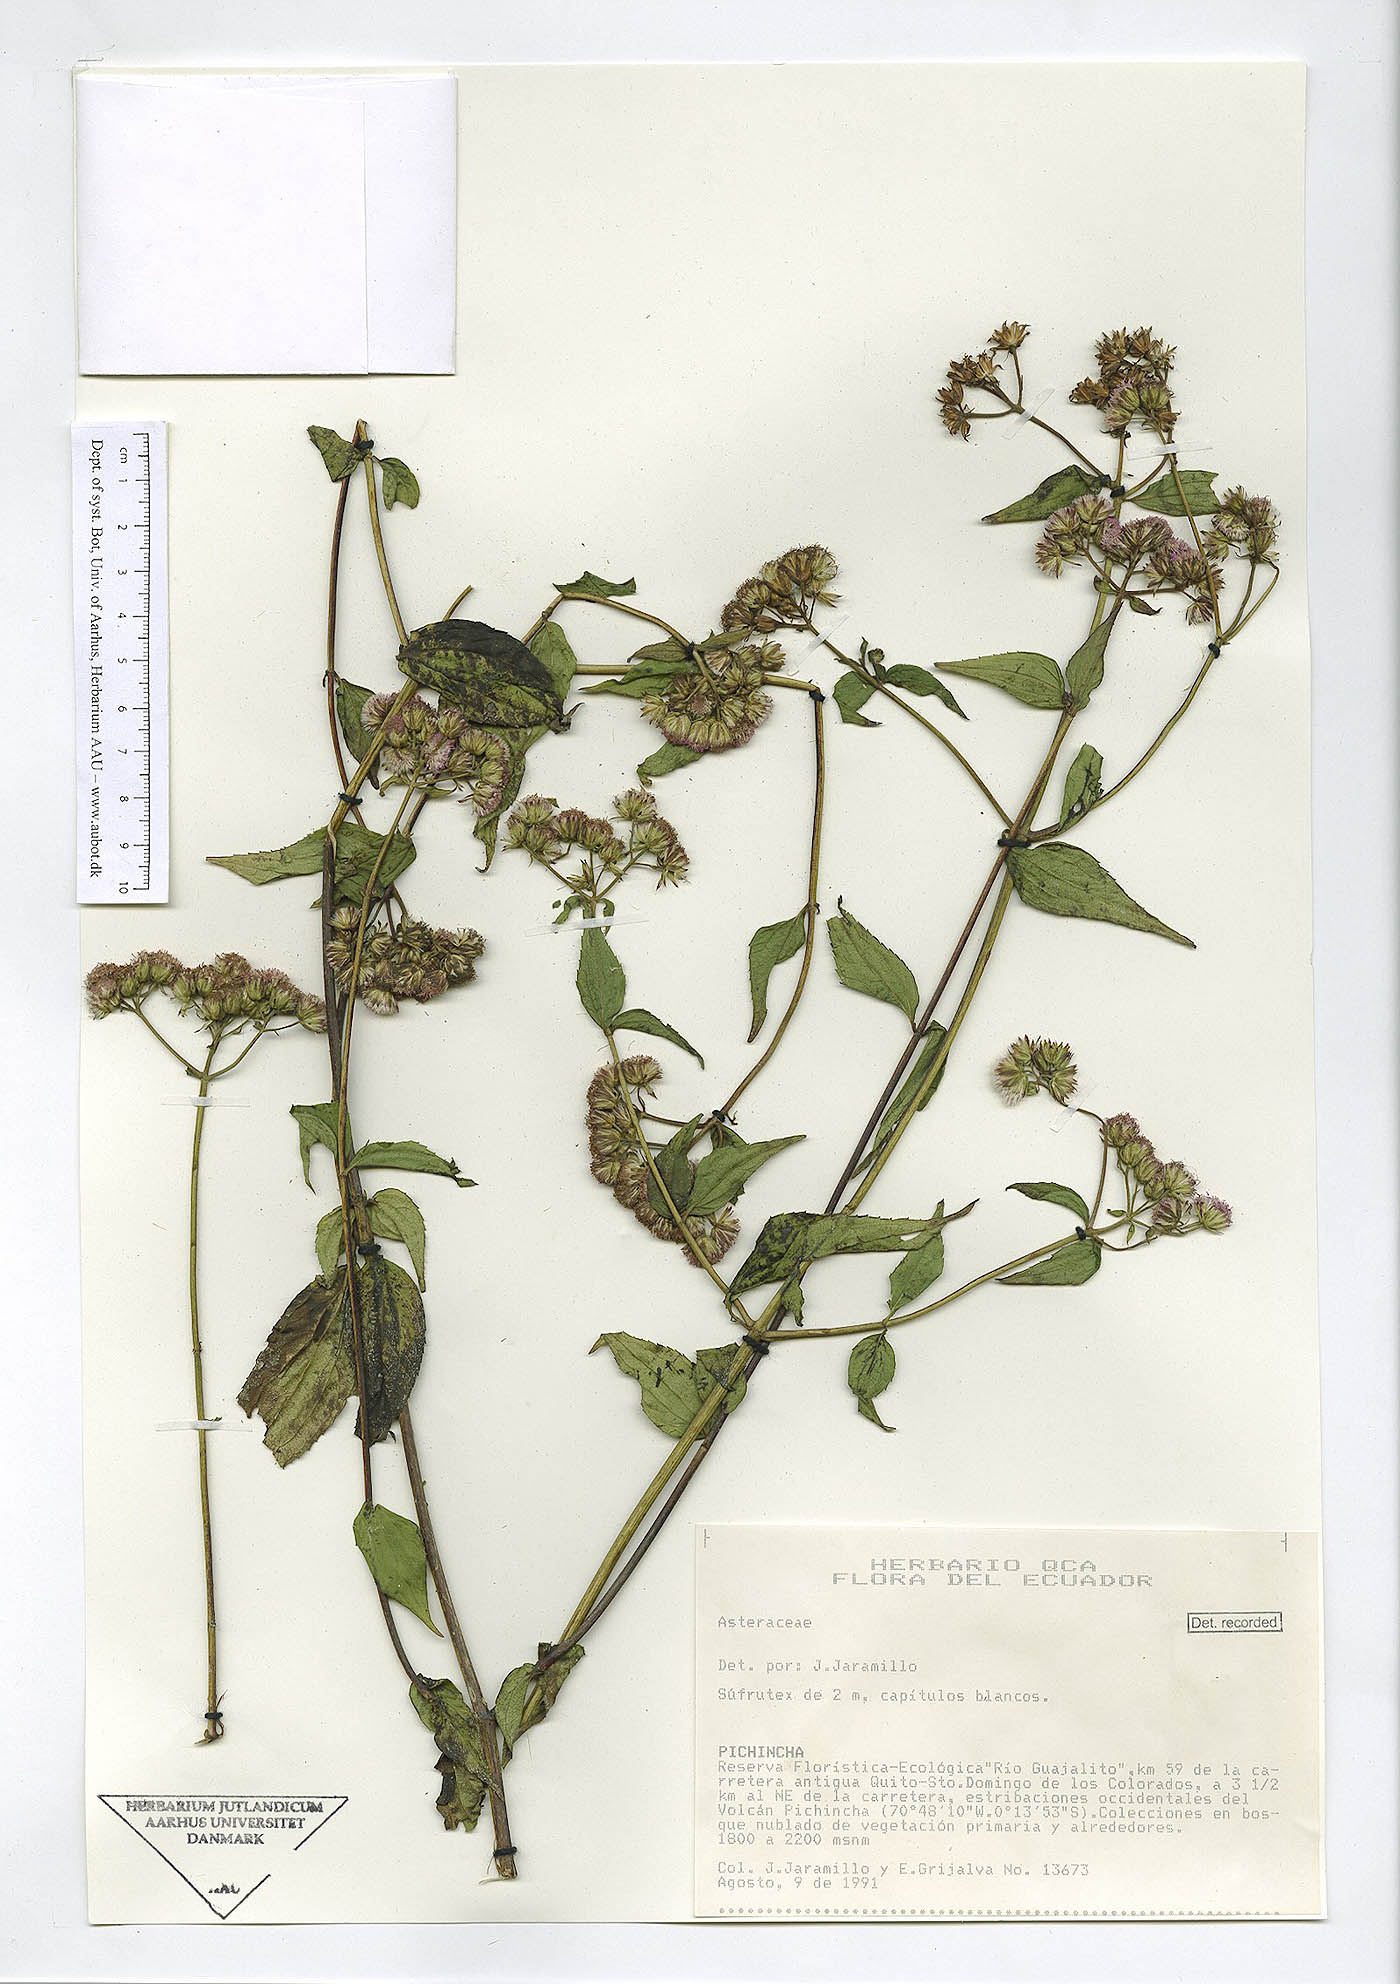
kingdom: Plantae
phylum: Tracheophyta
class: Magnoliopsida
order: Asterales
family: Asteraceae
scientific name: Asteraceae
